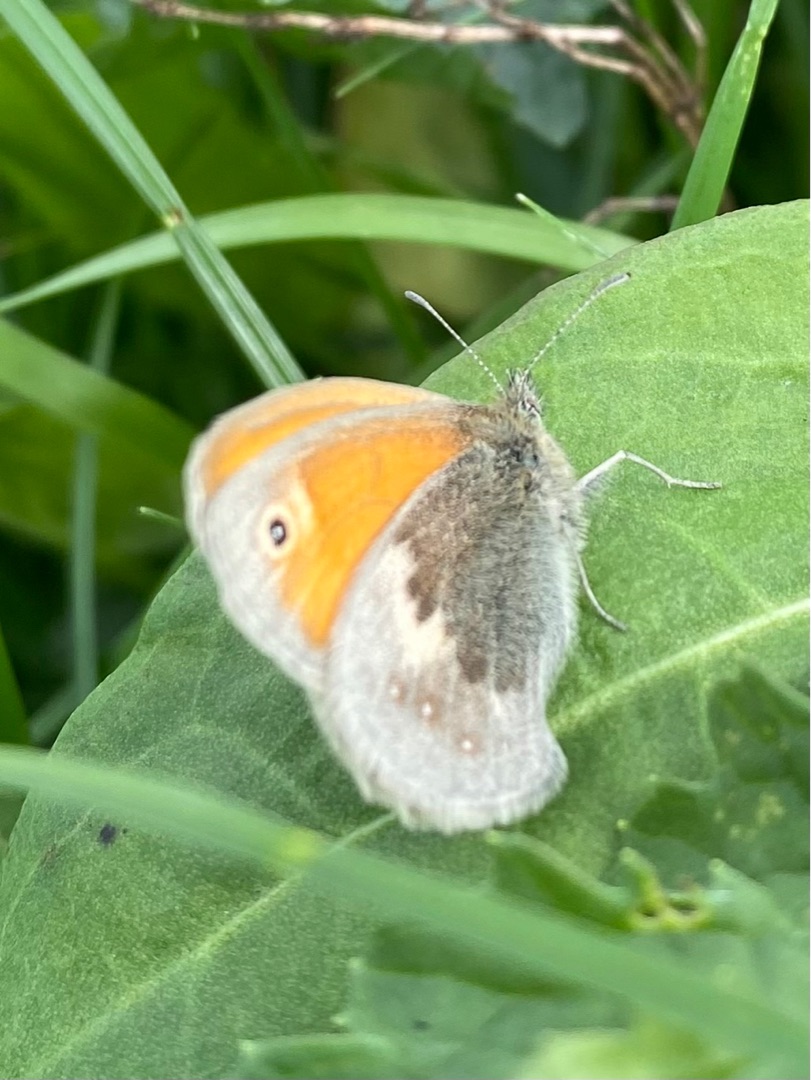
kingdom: Animalia
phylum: Arthropoda
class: Insecta
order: Lepidoptera
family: Nymphalidae
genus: Coenonympha
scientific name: Coenonympha pamphilus
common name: Okkergul randøje
